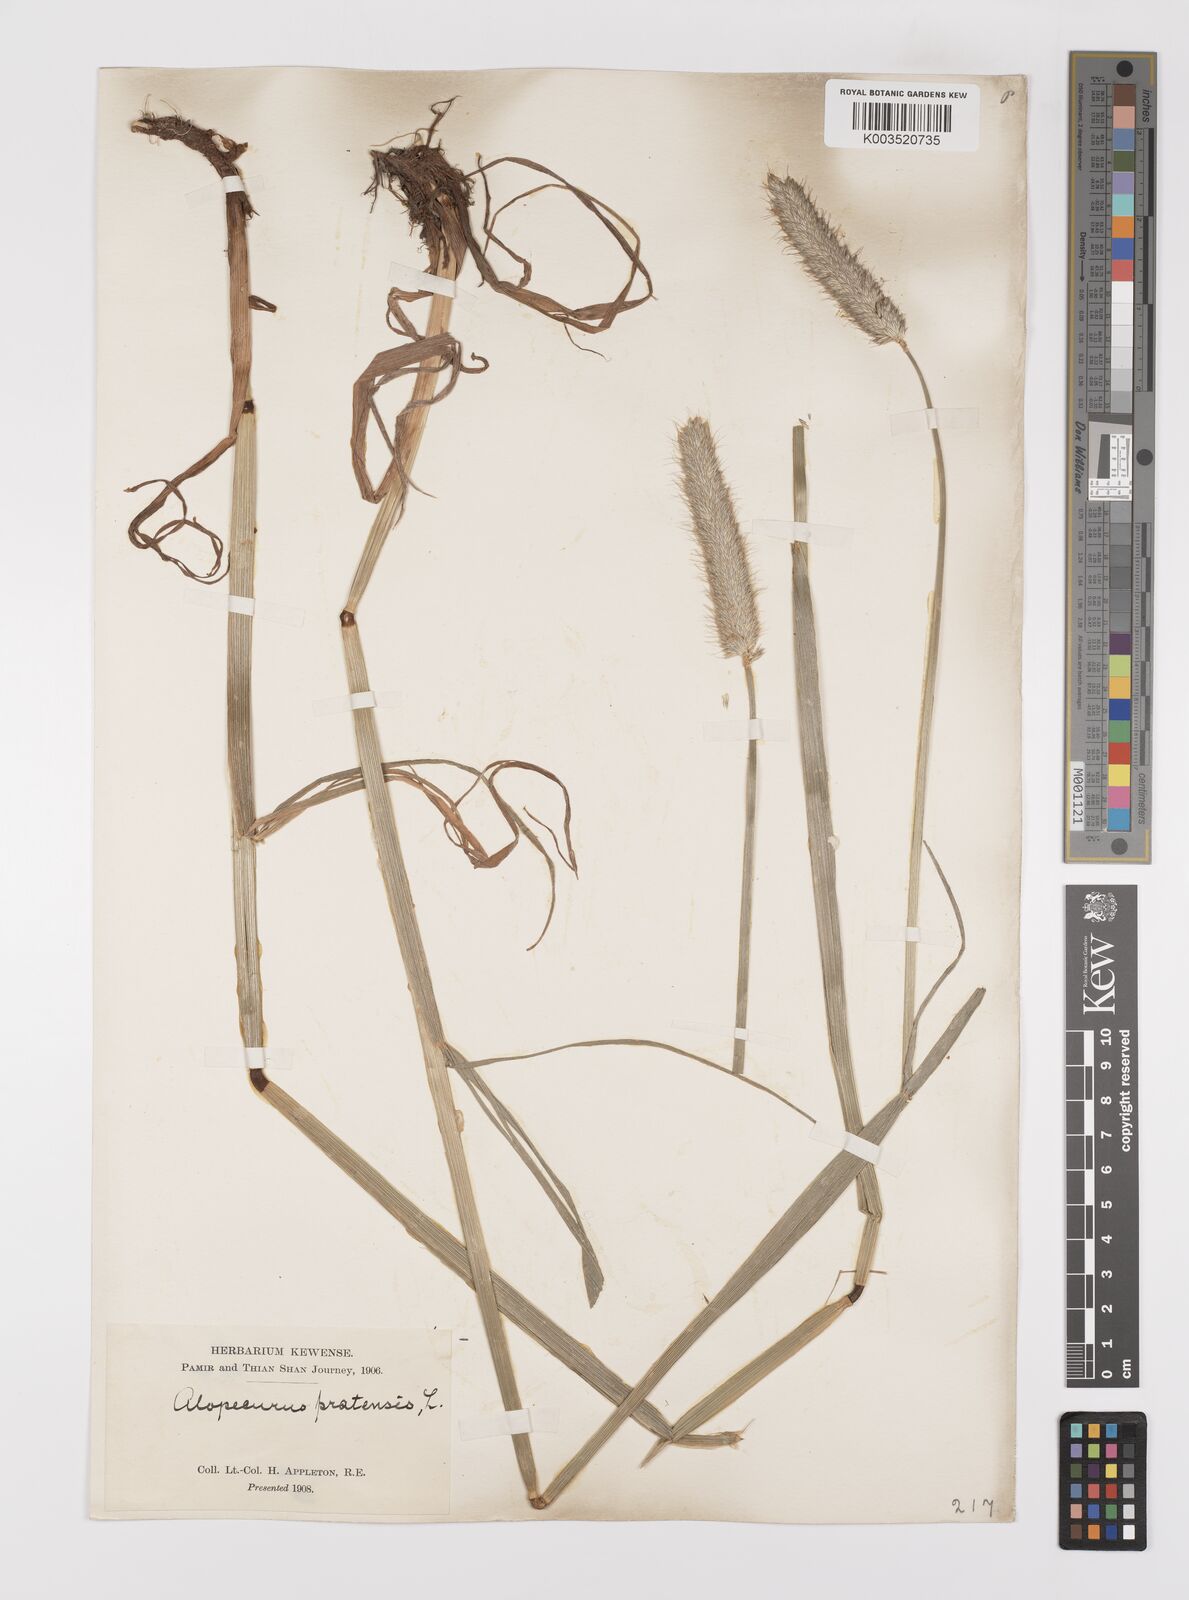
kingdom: Plantae
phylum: Tracheophyta
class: Liliopsida
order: Poales
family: Poaceae
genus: Alopecurus
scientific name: Alopecurus pratensis
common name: Meadow foxtail
